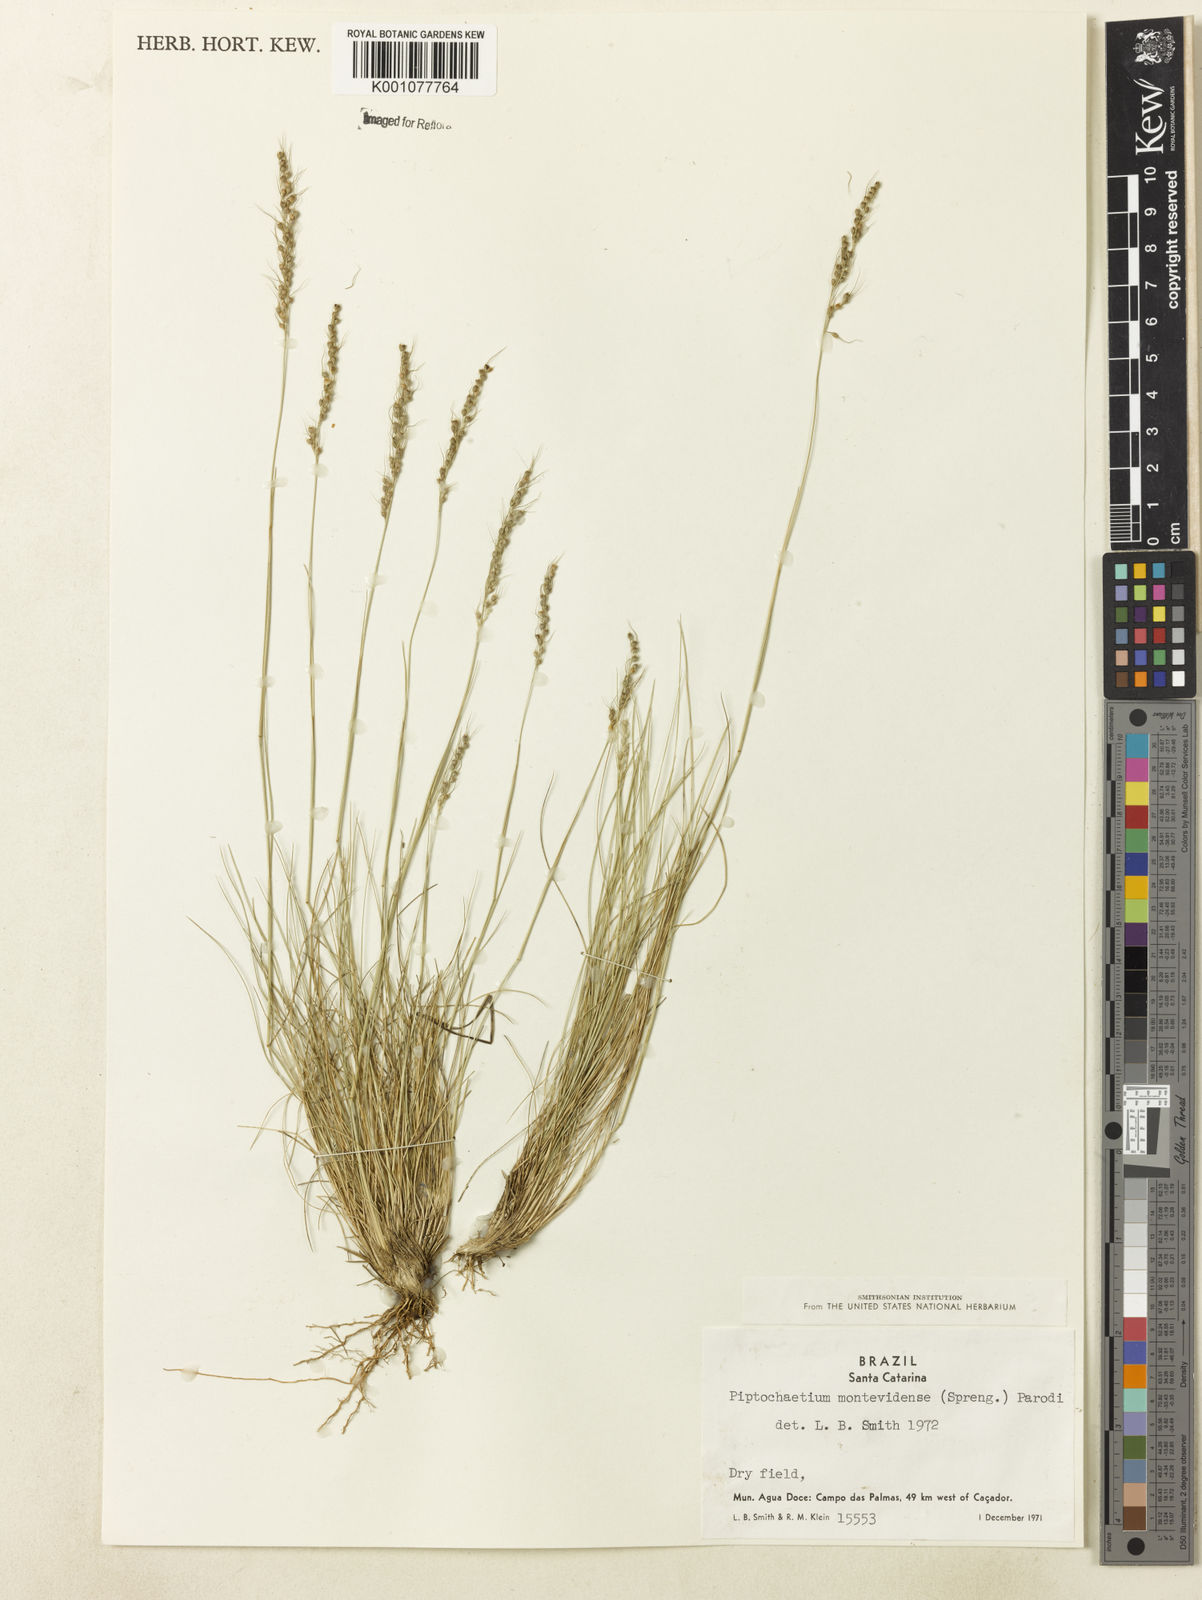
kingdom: Plantae
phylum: Tracheophyta
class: Liliopsida
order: Poales
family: Poaceae
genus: Piptochaetium
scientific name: Piptochaetium montevidense
